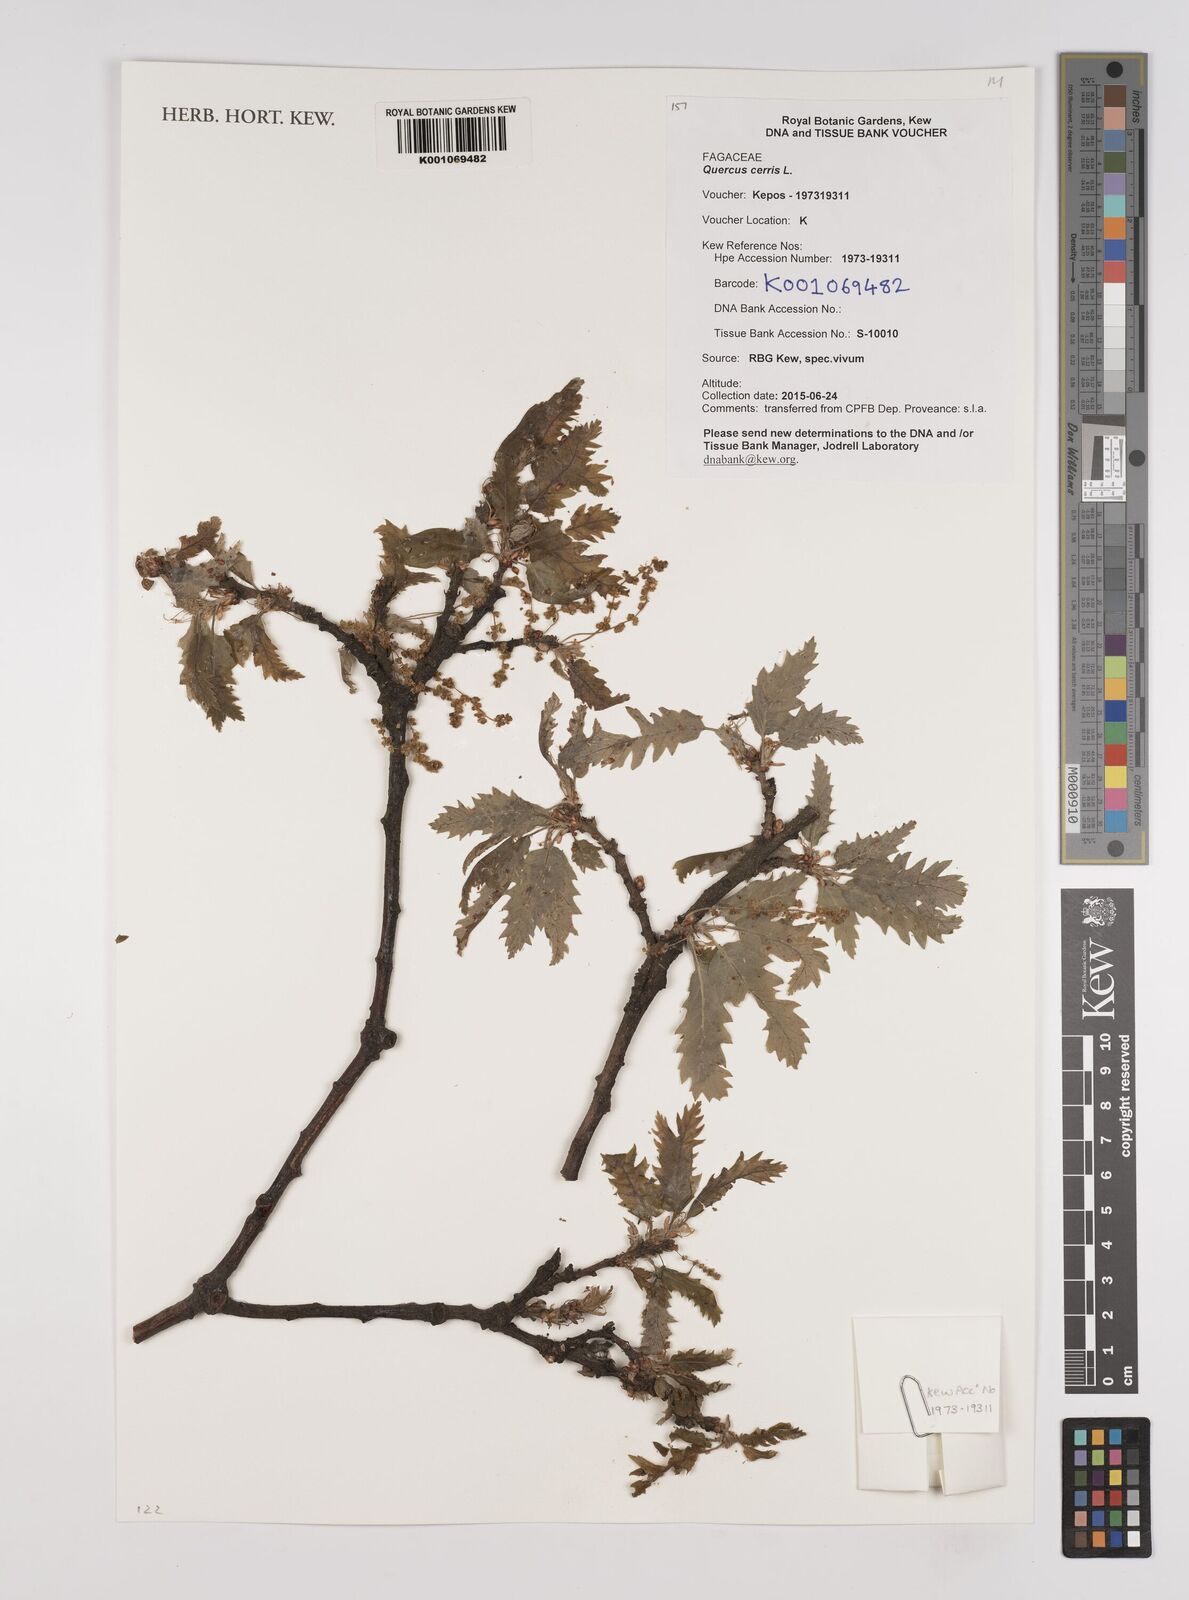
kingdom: Plantae
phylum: Tracheophyta
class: Magnoliopsida
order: Fagales
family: Fagaceae
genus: Quercus
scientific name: Quercus cerris
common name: Turkey oak
